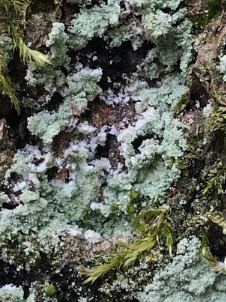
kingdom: Fungi
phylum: Ascomycota
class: Lecanoromycetes
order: Lecanorales
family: Stereocaulaceae
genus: Lepraria
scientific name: Lepraria
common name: Støvlav
